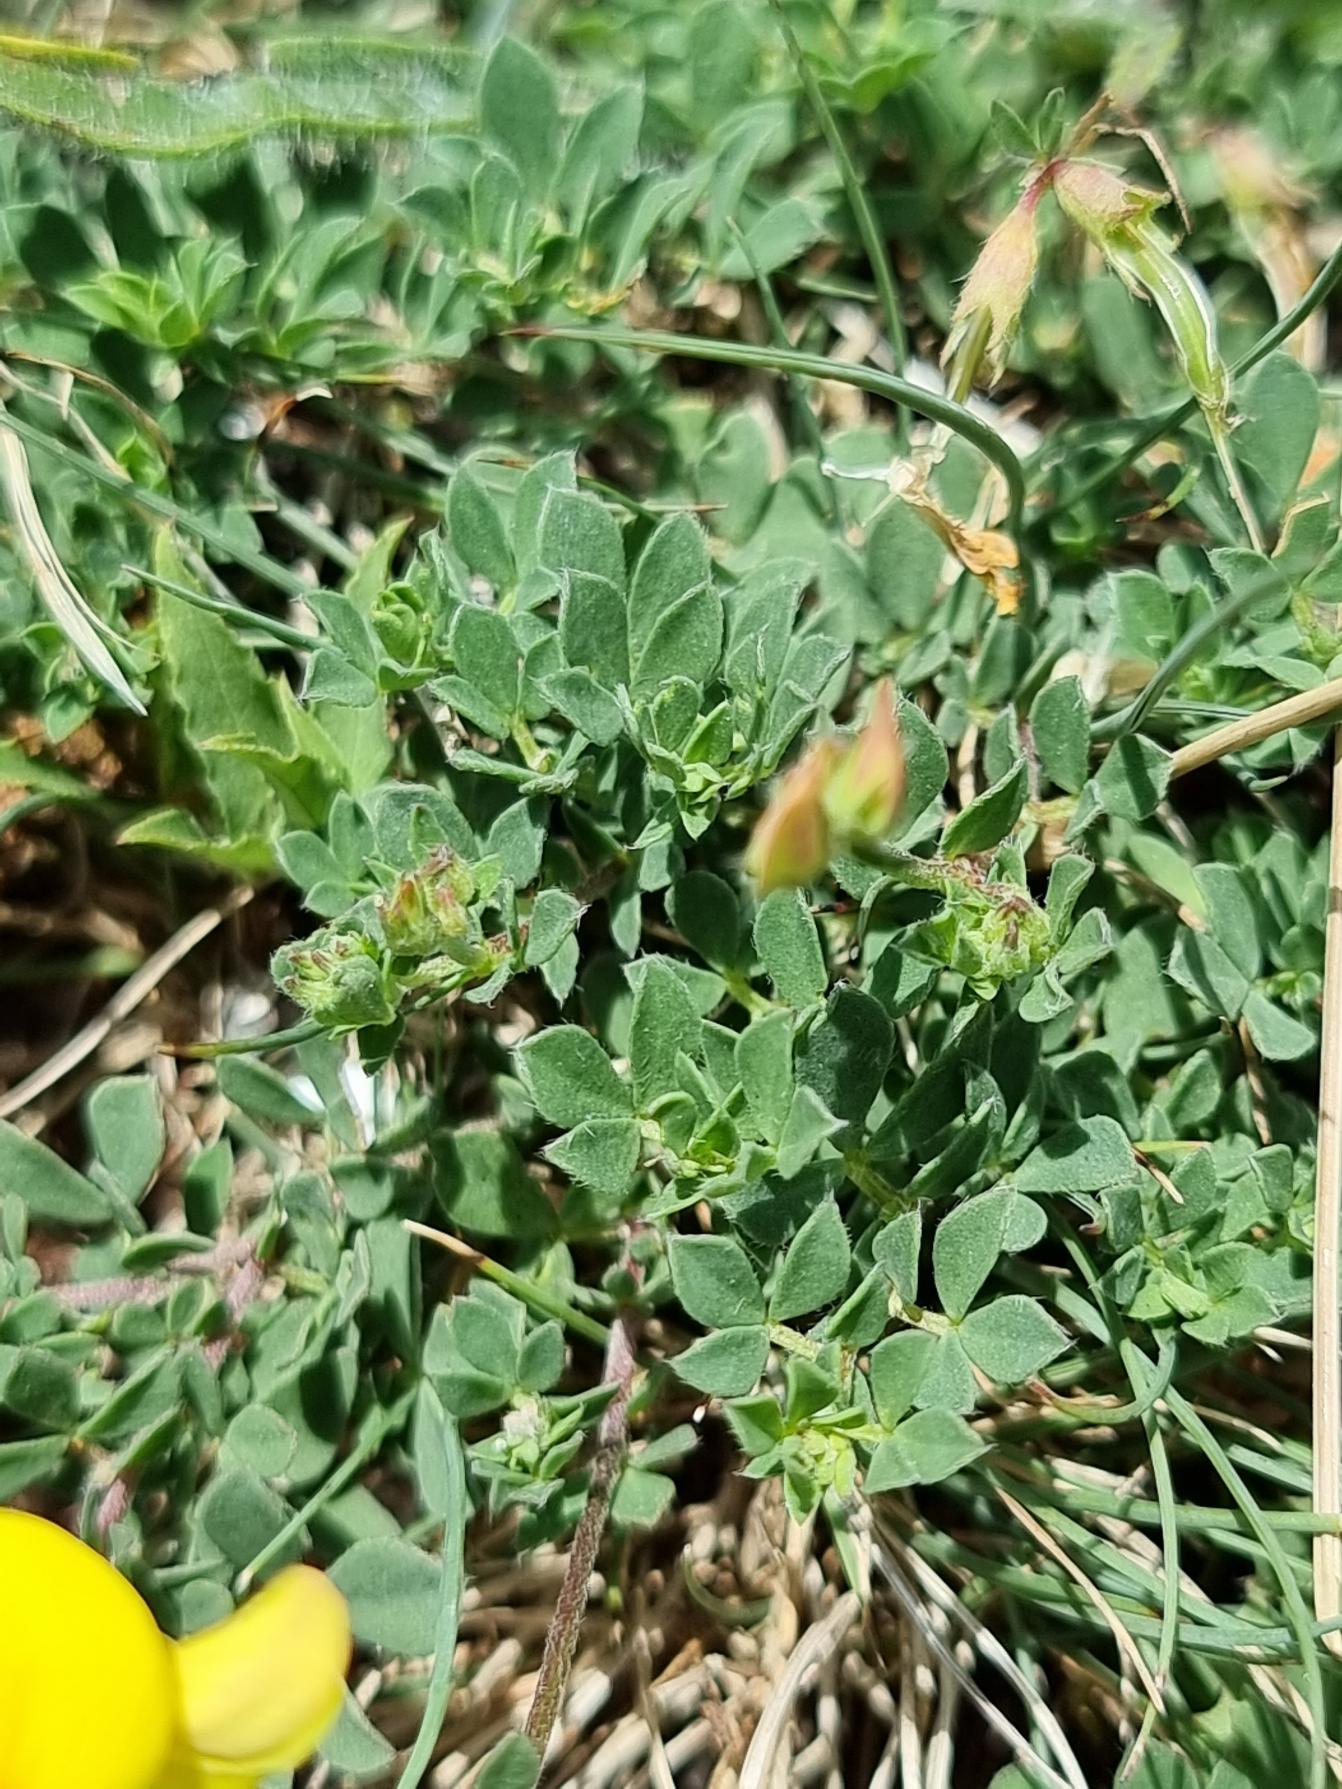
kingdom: Plantae
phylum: Tracheophyta
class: Magnoliopsida
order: Fabales
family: Fabaceae
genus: Lotus
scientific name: Lotus corniculatus
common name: Almindelig kællingetand
